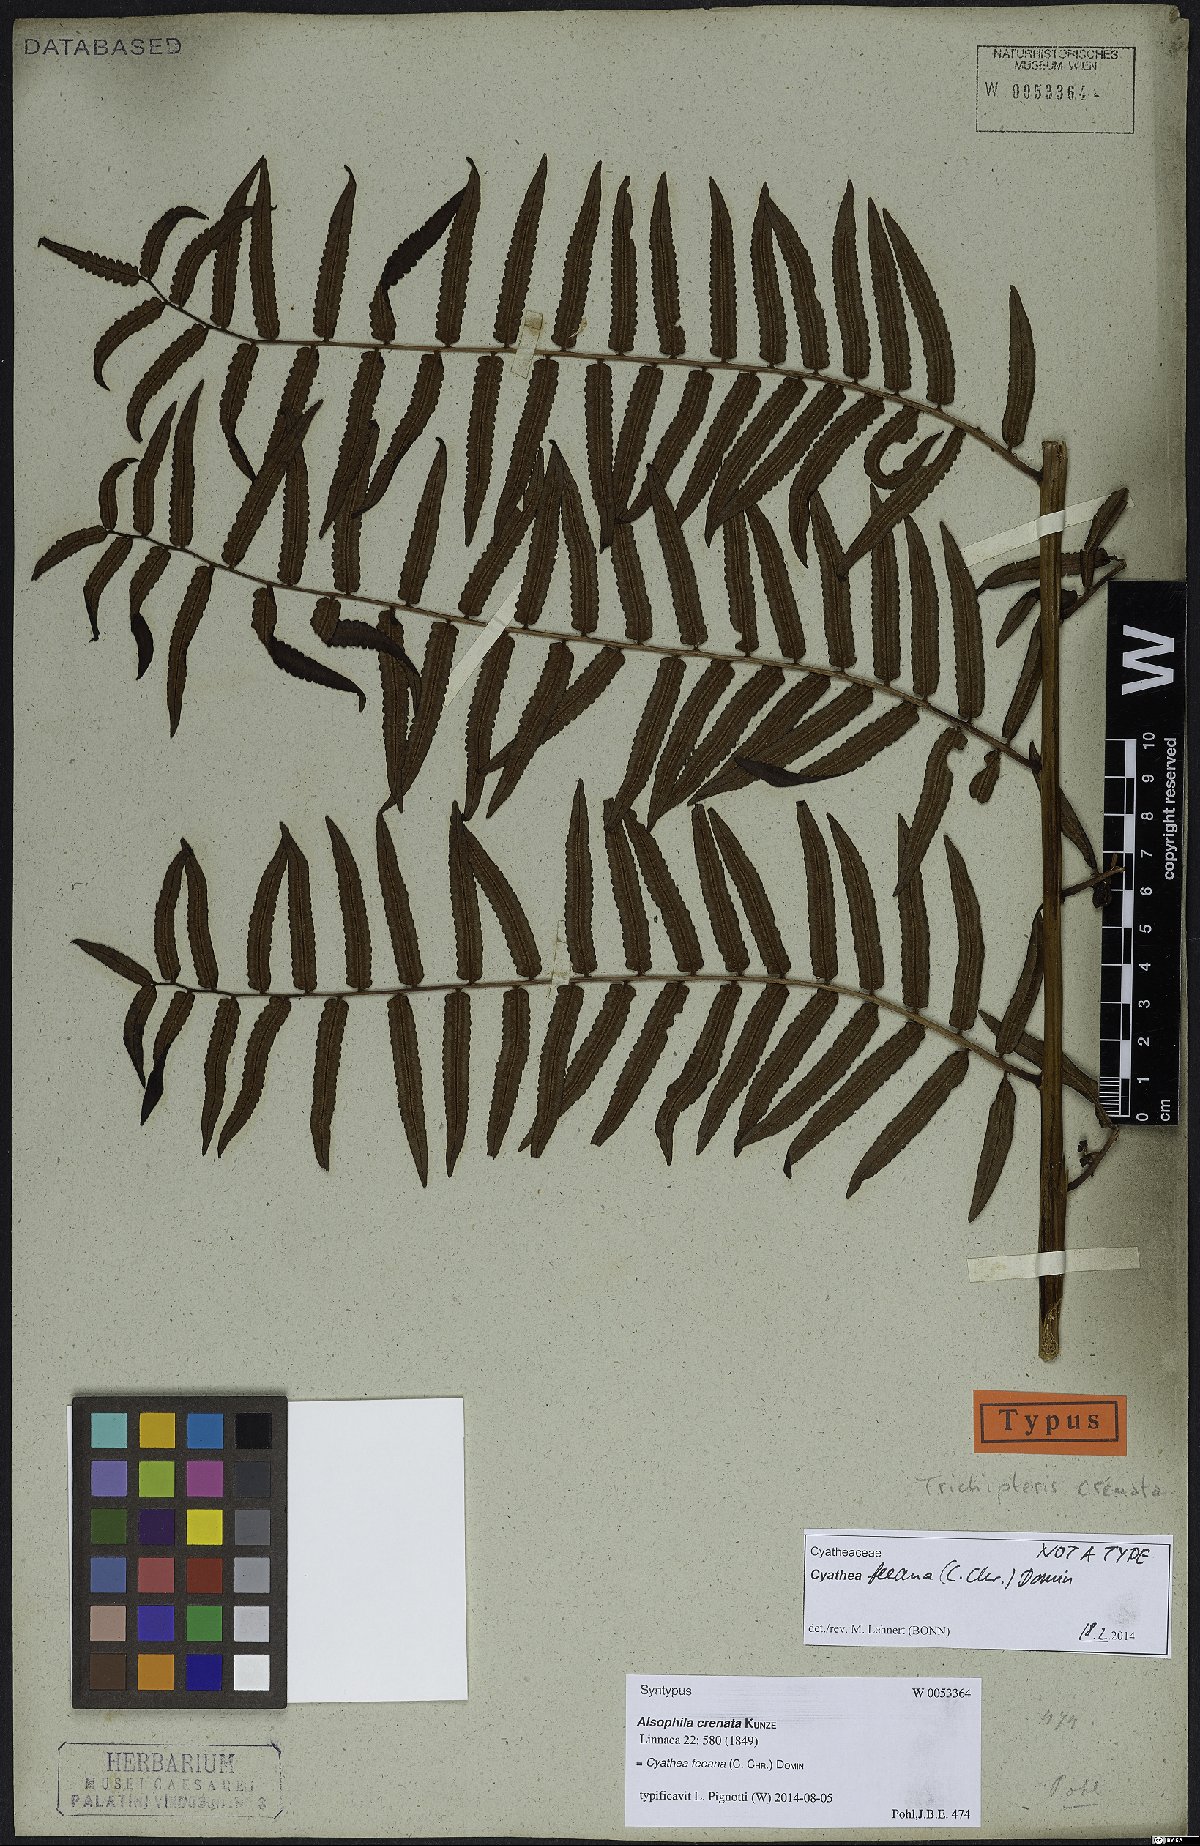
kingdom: Plantae
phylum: Tracheophyta
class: Polypodiopsida
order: Cyatheales
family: Cyatheaceae
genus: Cyathea
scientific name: Cyathea feeana
